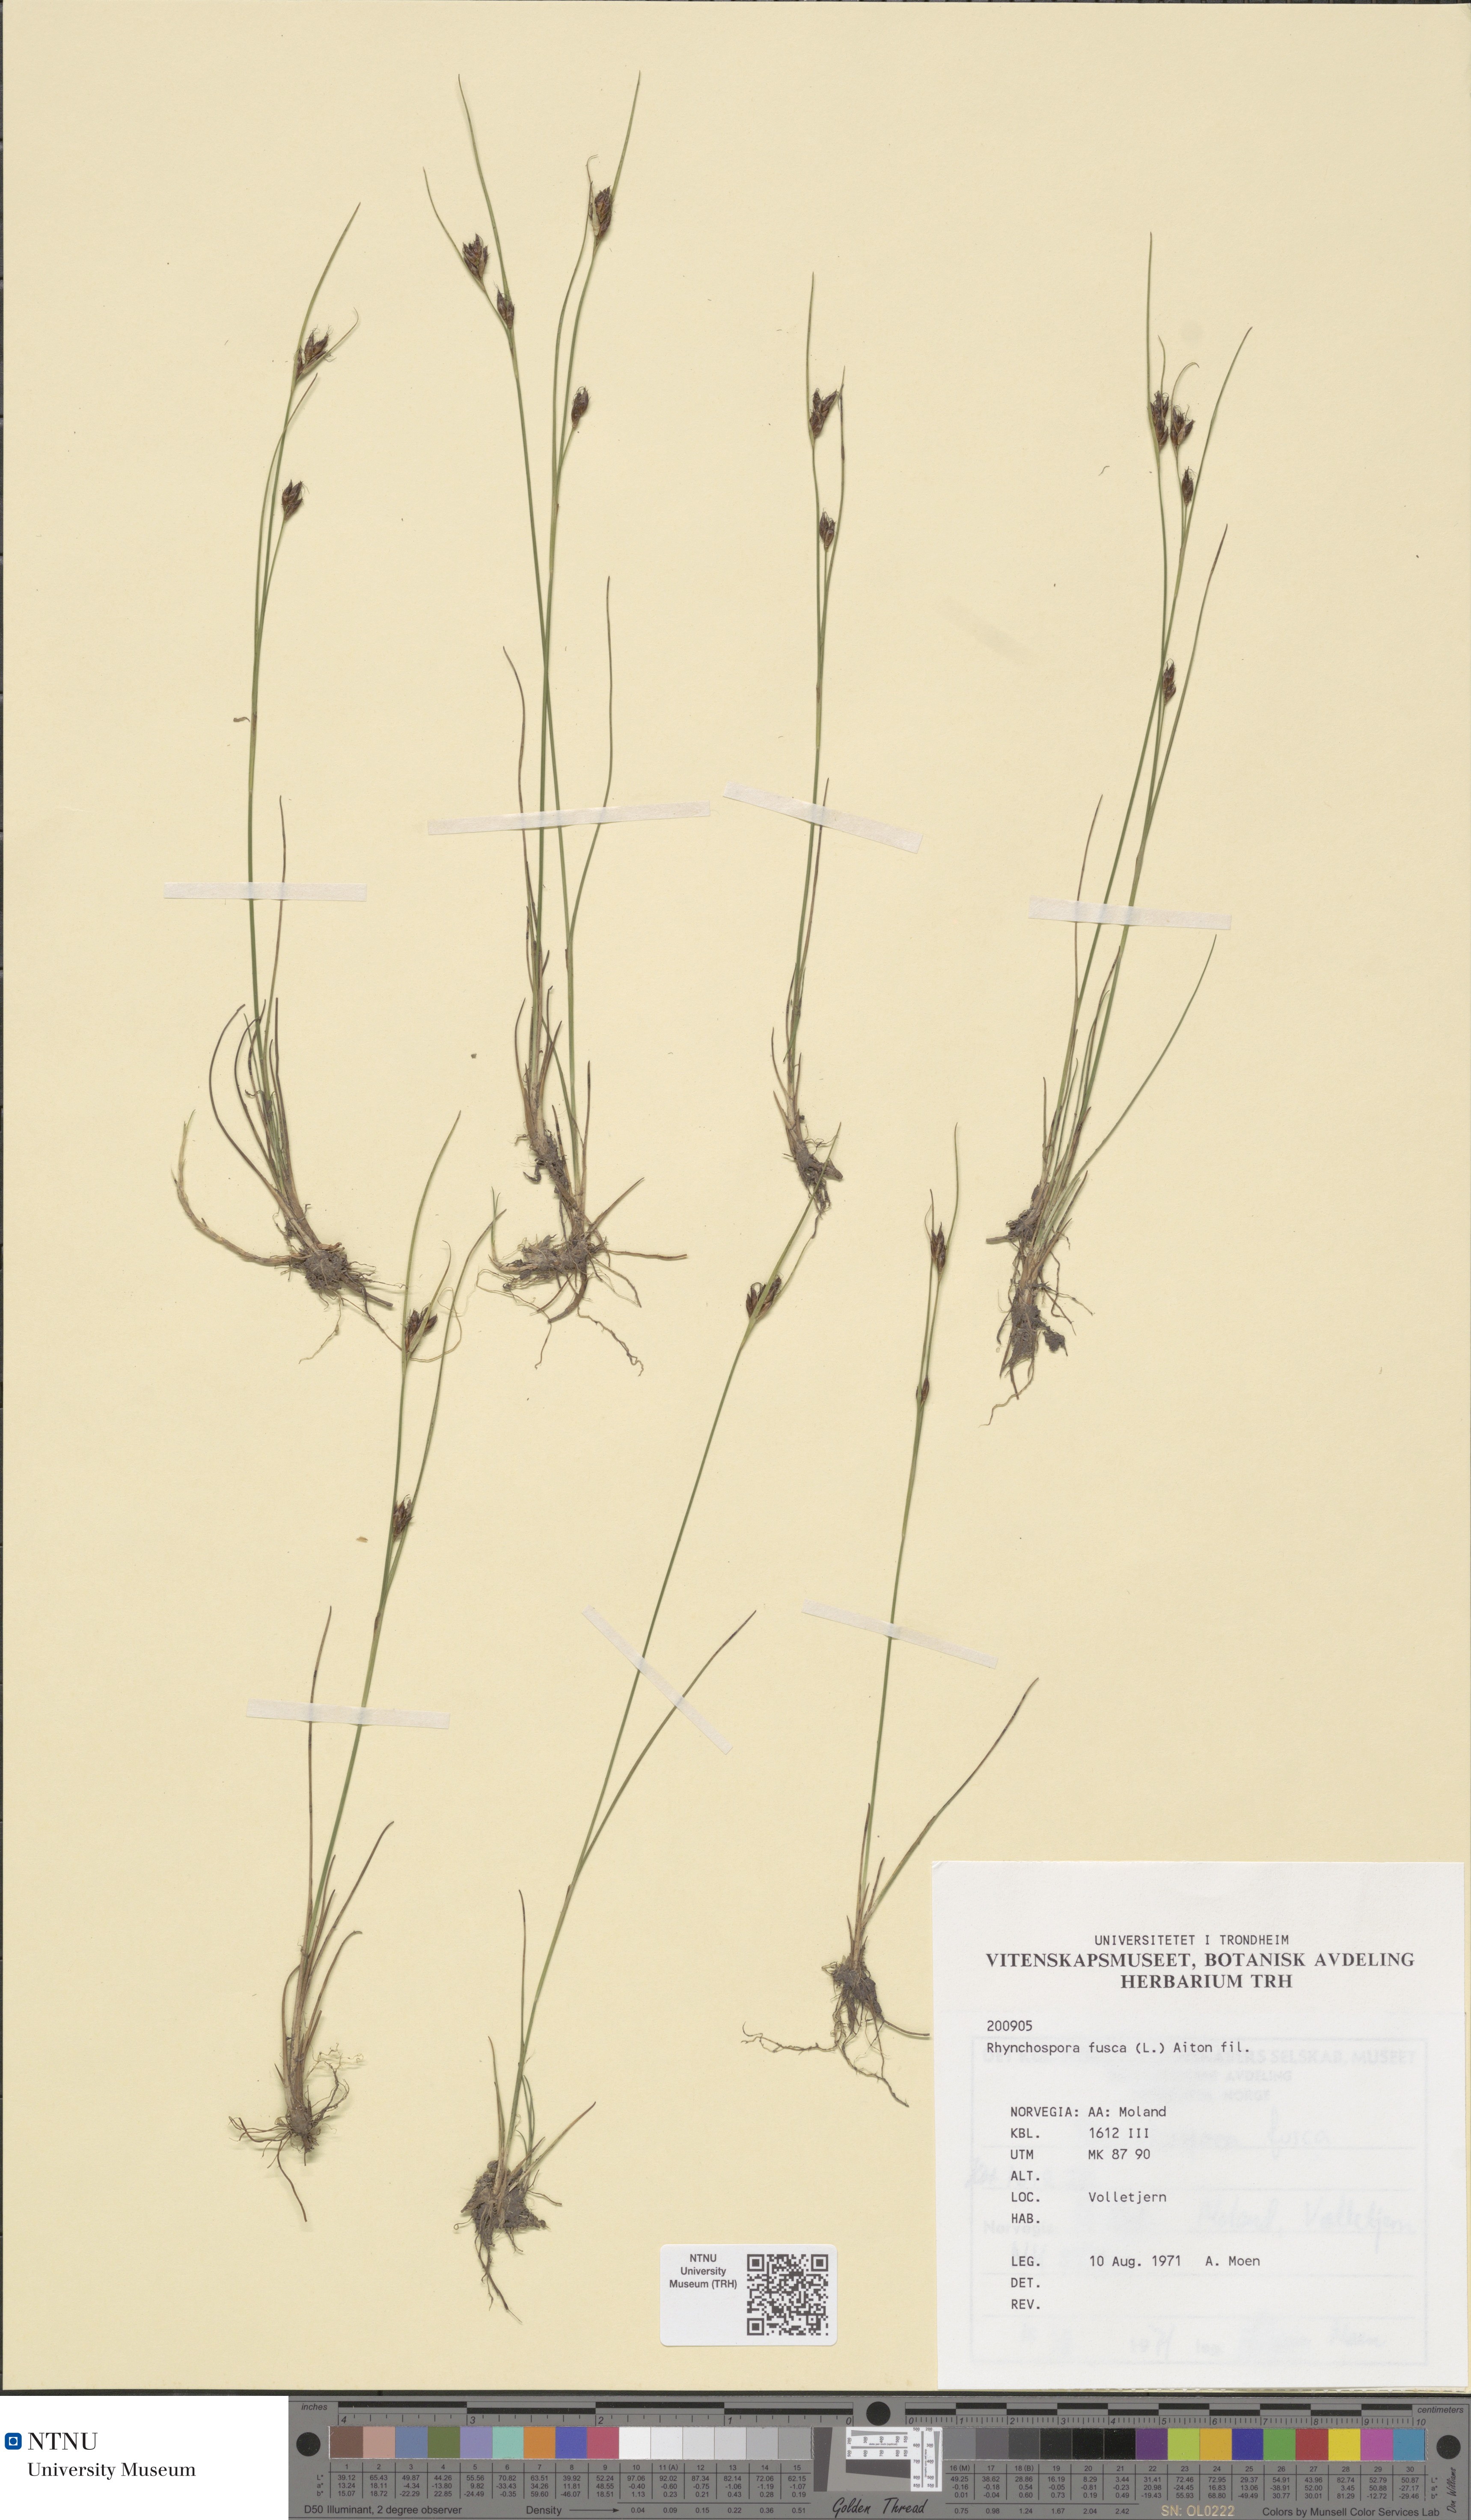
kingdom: Plantae
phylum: Tracheophyta
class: Liliopsida
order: Poales
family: Cyperaceae
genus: Rhynchospora
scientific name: Rhynchospora fusca
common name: Brown beak-sedge
